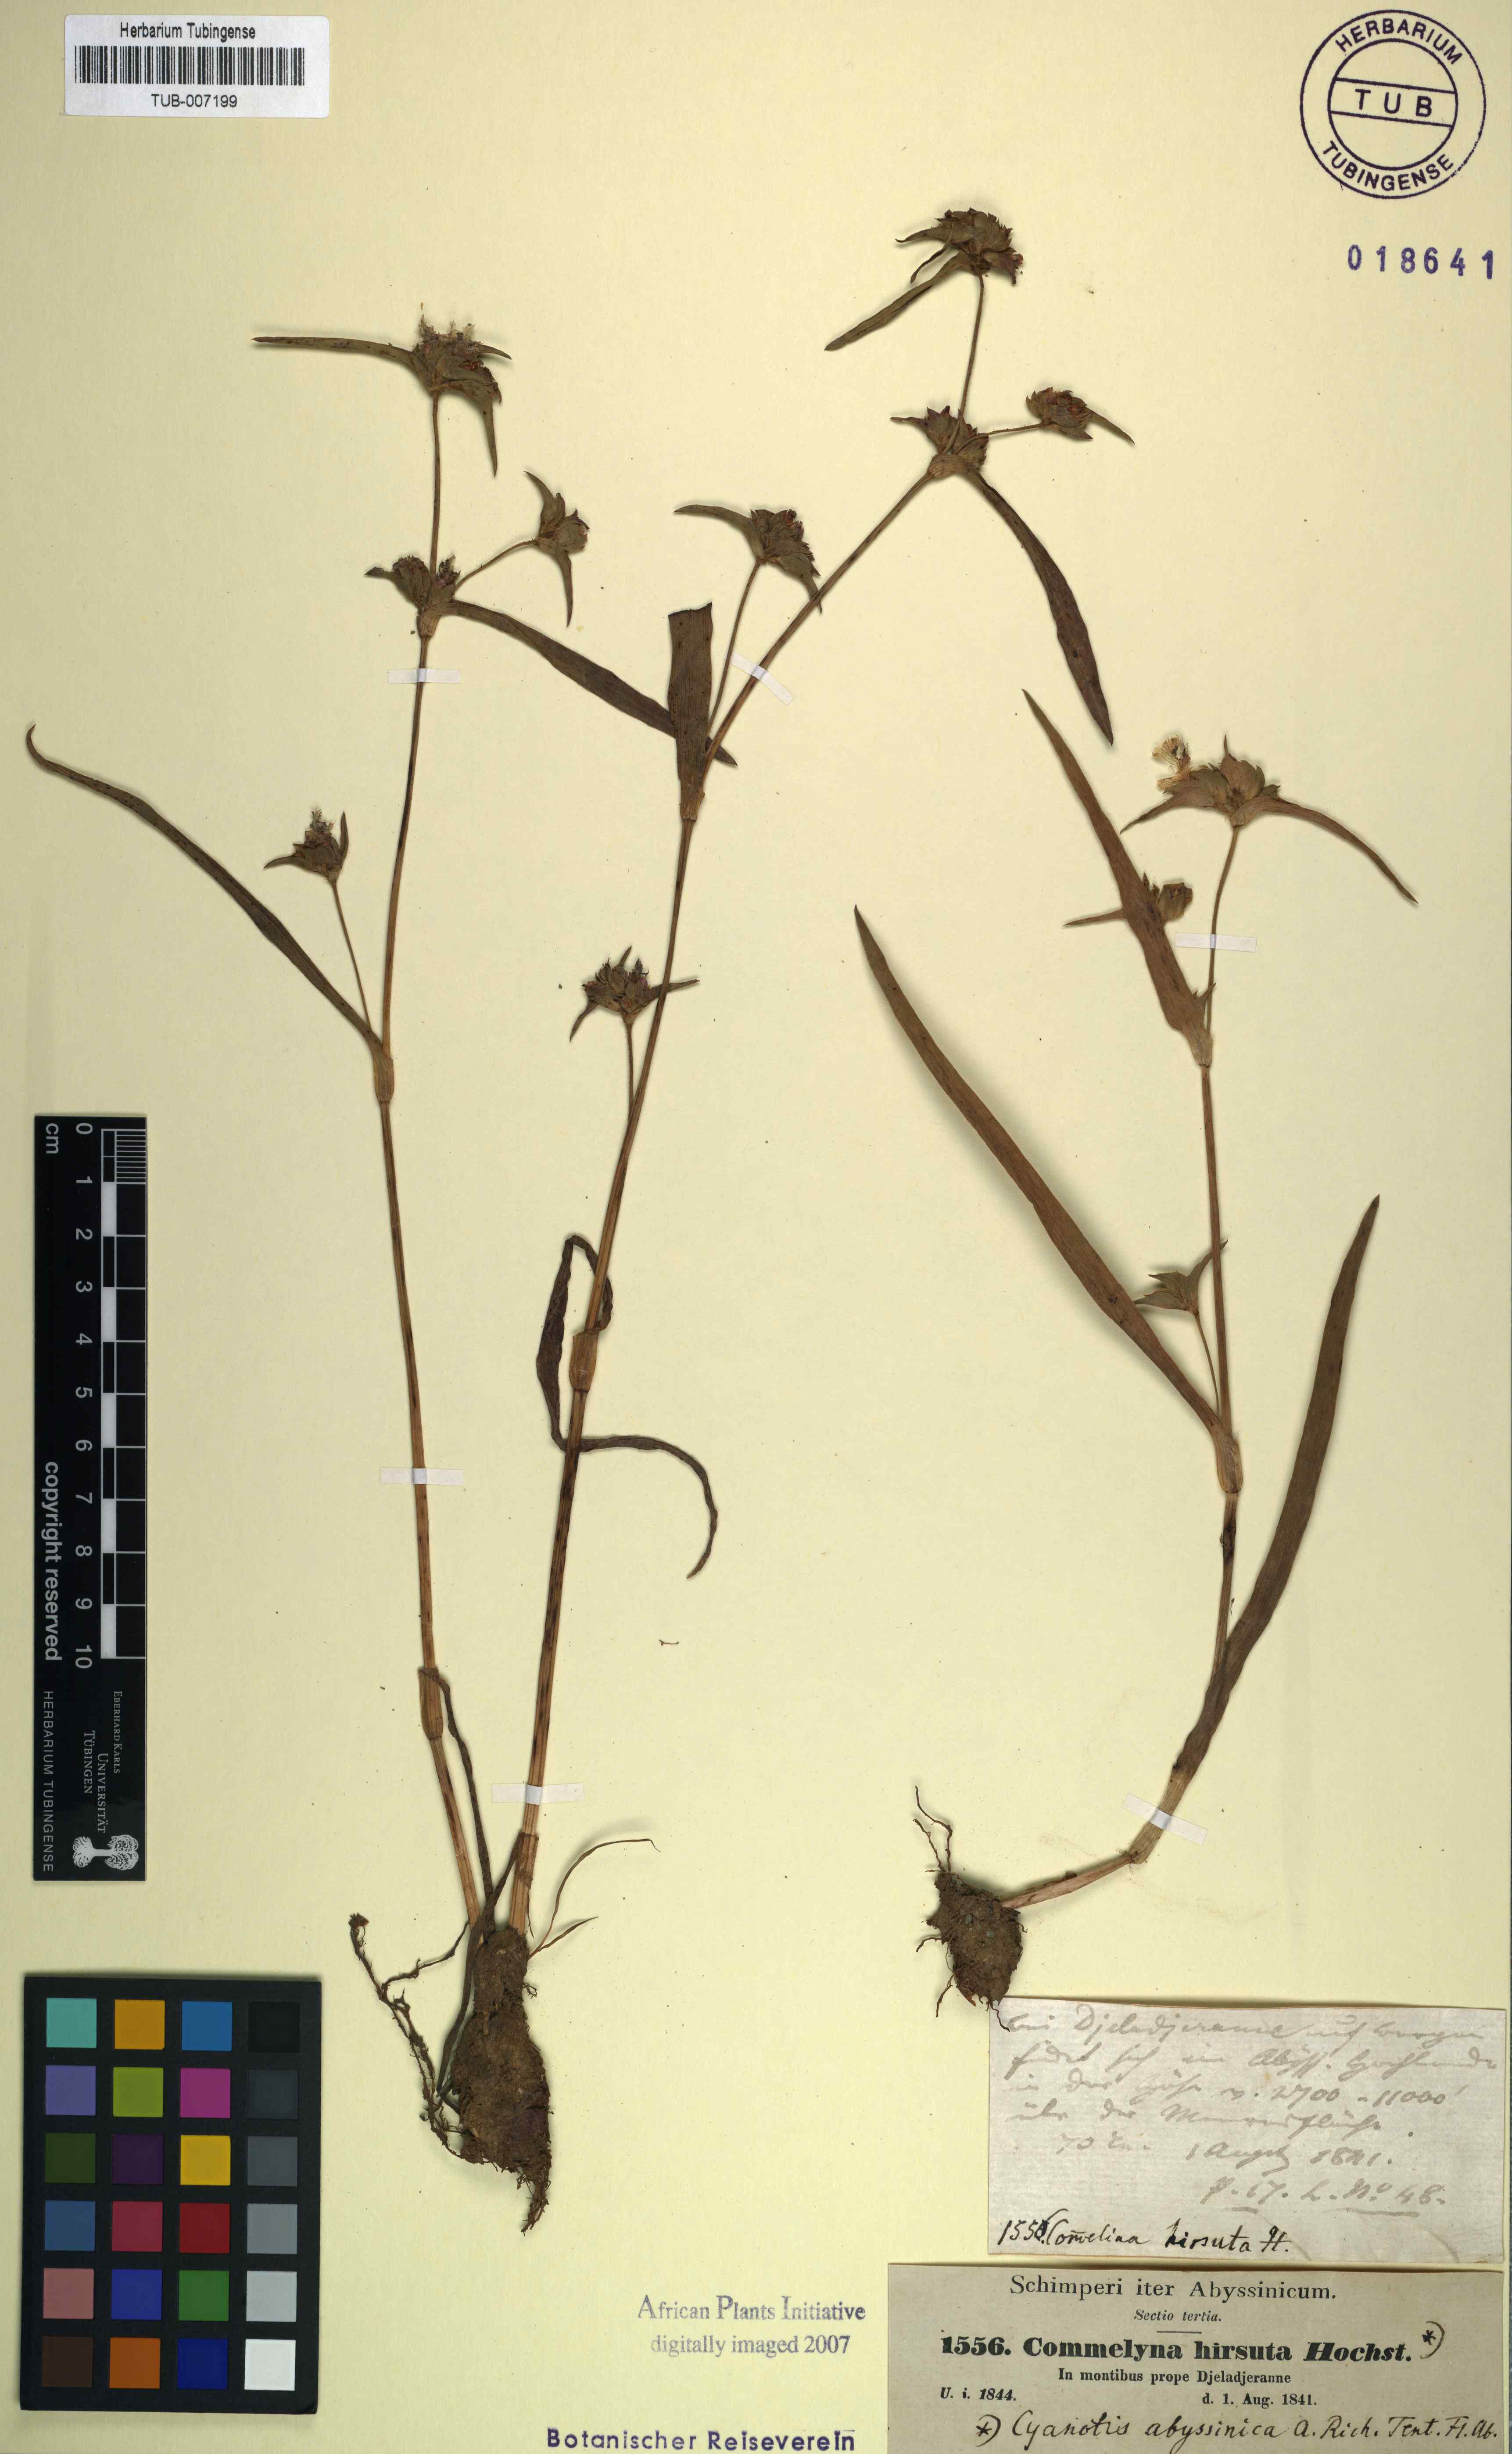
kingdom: Plantae
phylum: Tracheophyta
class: Liliopsida
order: Commelinales
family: Commelinaceae
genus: Cyanotis
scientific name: Cyanotis vaga
